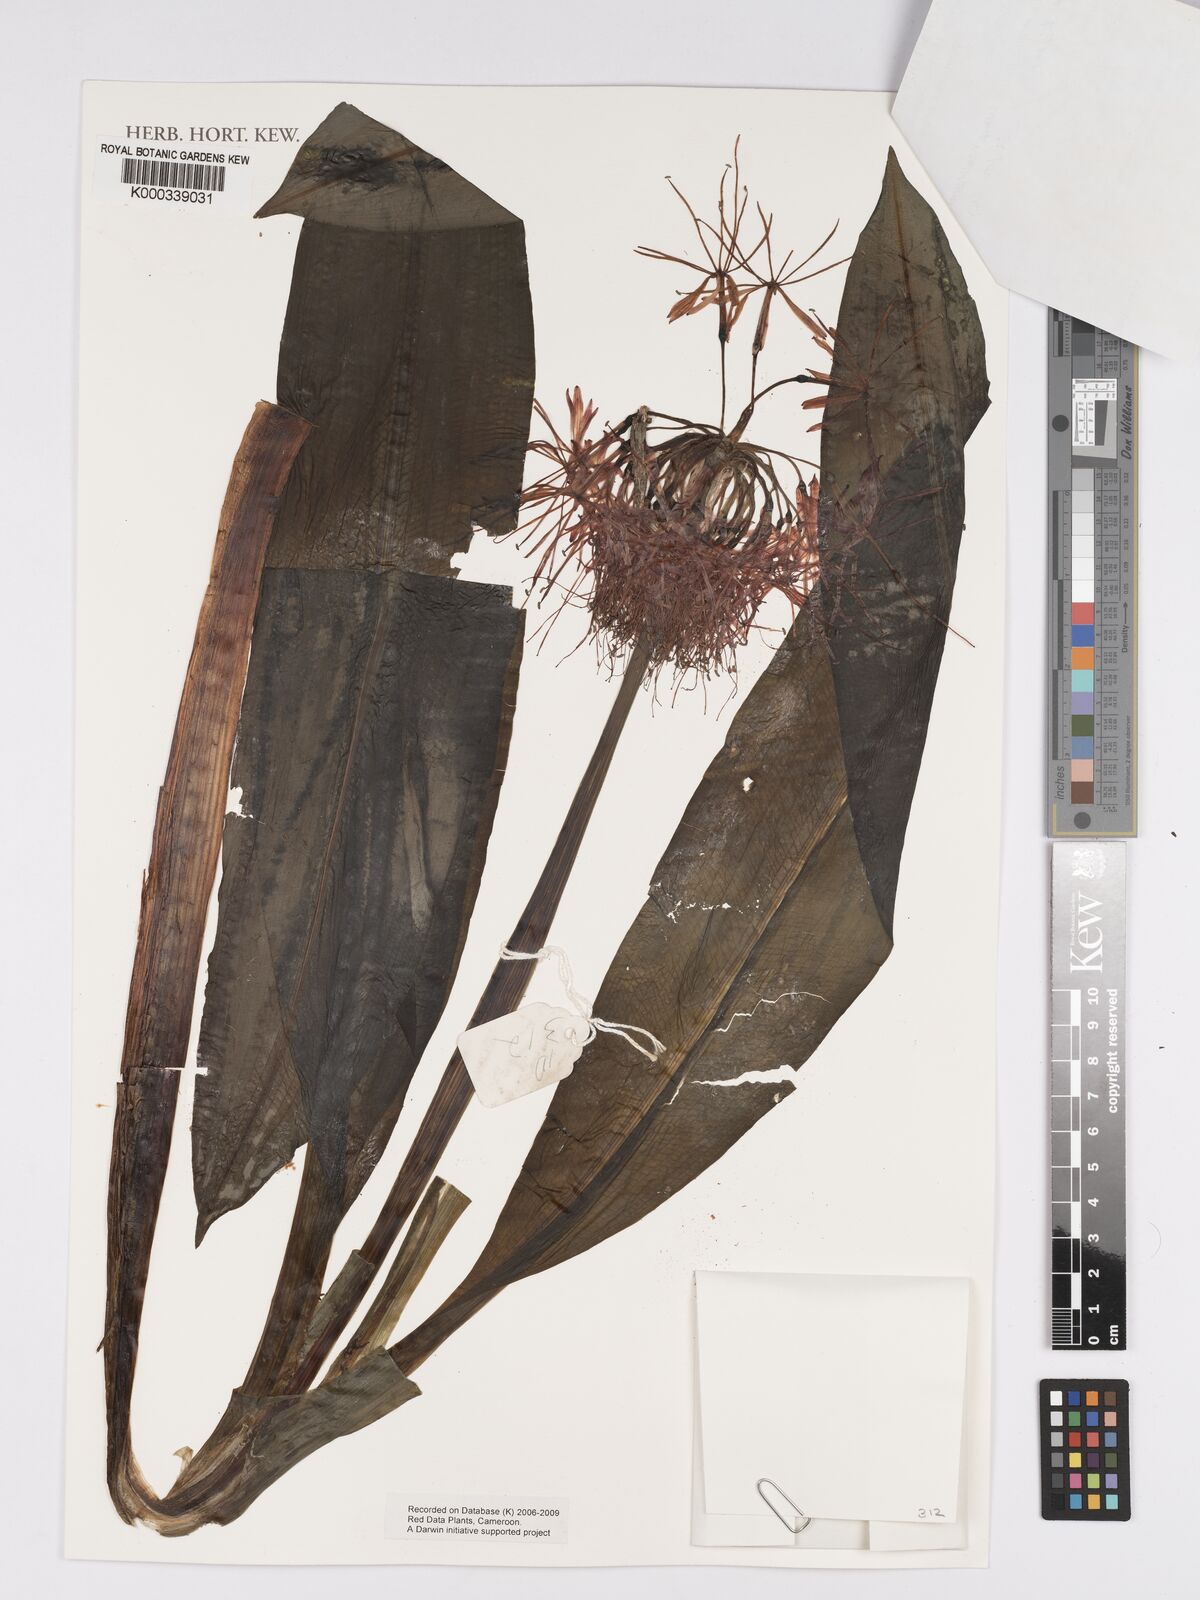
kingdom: Plantae
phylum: Tracheophyta
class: Liliopsida
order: Asparagales
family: Amaryllidaceae
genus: Scadoxus
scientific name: Scadoxus multiflorus
